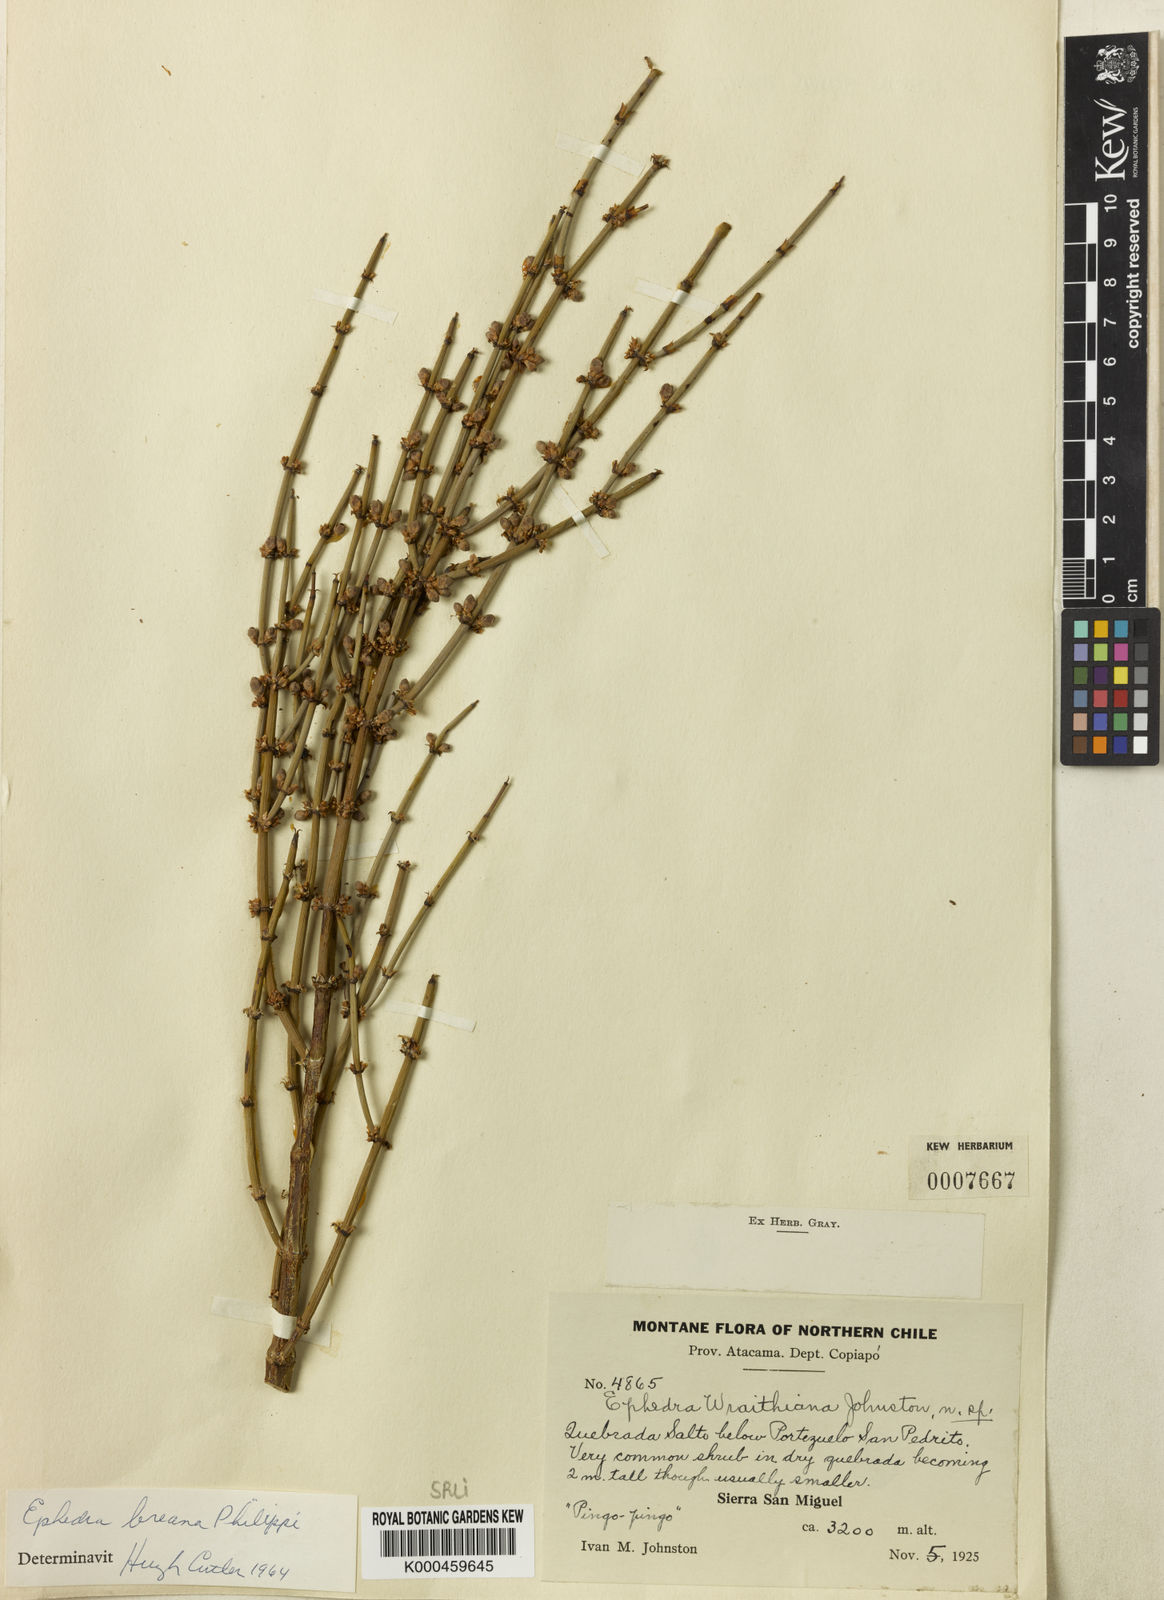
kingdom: Plantae
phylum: Tracheophyta
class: Gnetopsida
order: Ephedrales
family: Ephedraceae
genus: Ephedra
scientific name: Ephedra breana
